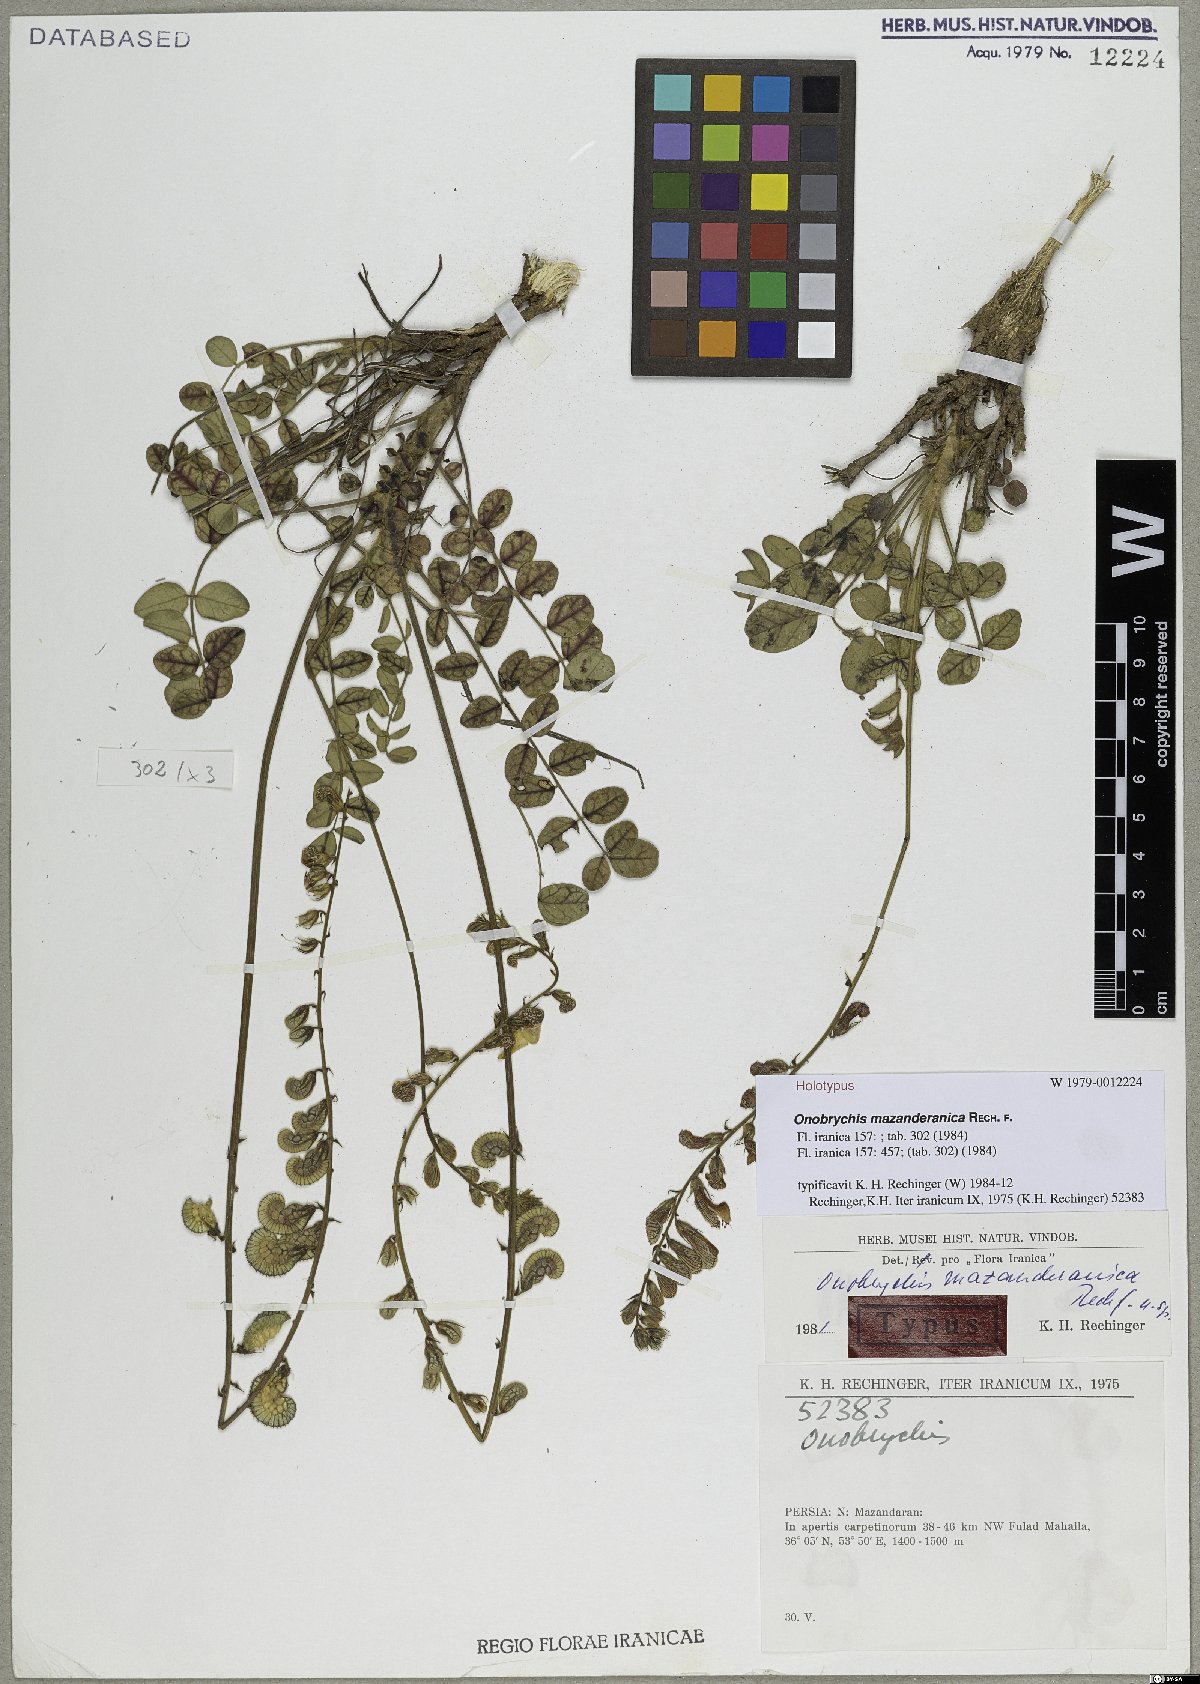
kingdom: Plantae
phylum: Tracheophyta
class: Magnoliopsida
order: Fabales
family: Fabaceae
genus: Onobrychis
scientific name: Onobrychis mazanderanica
